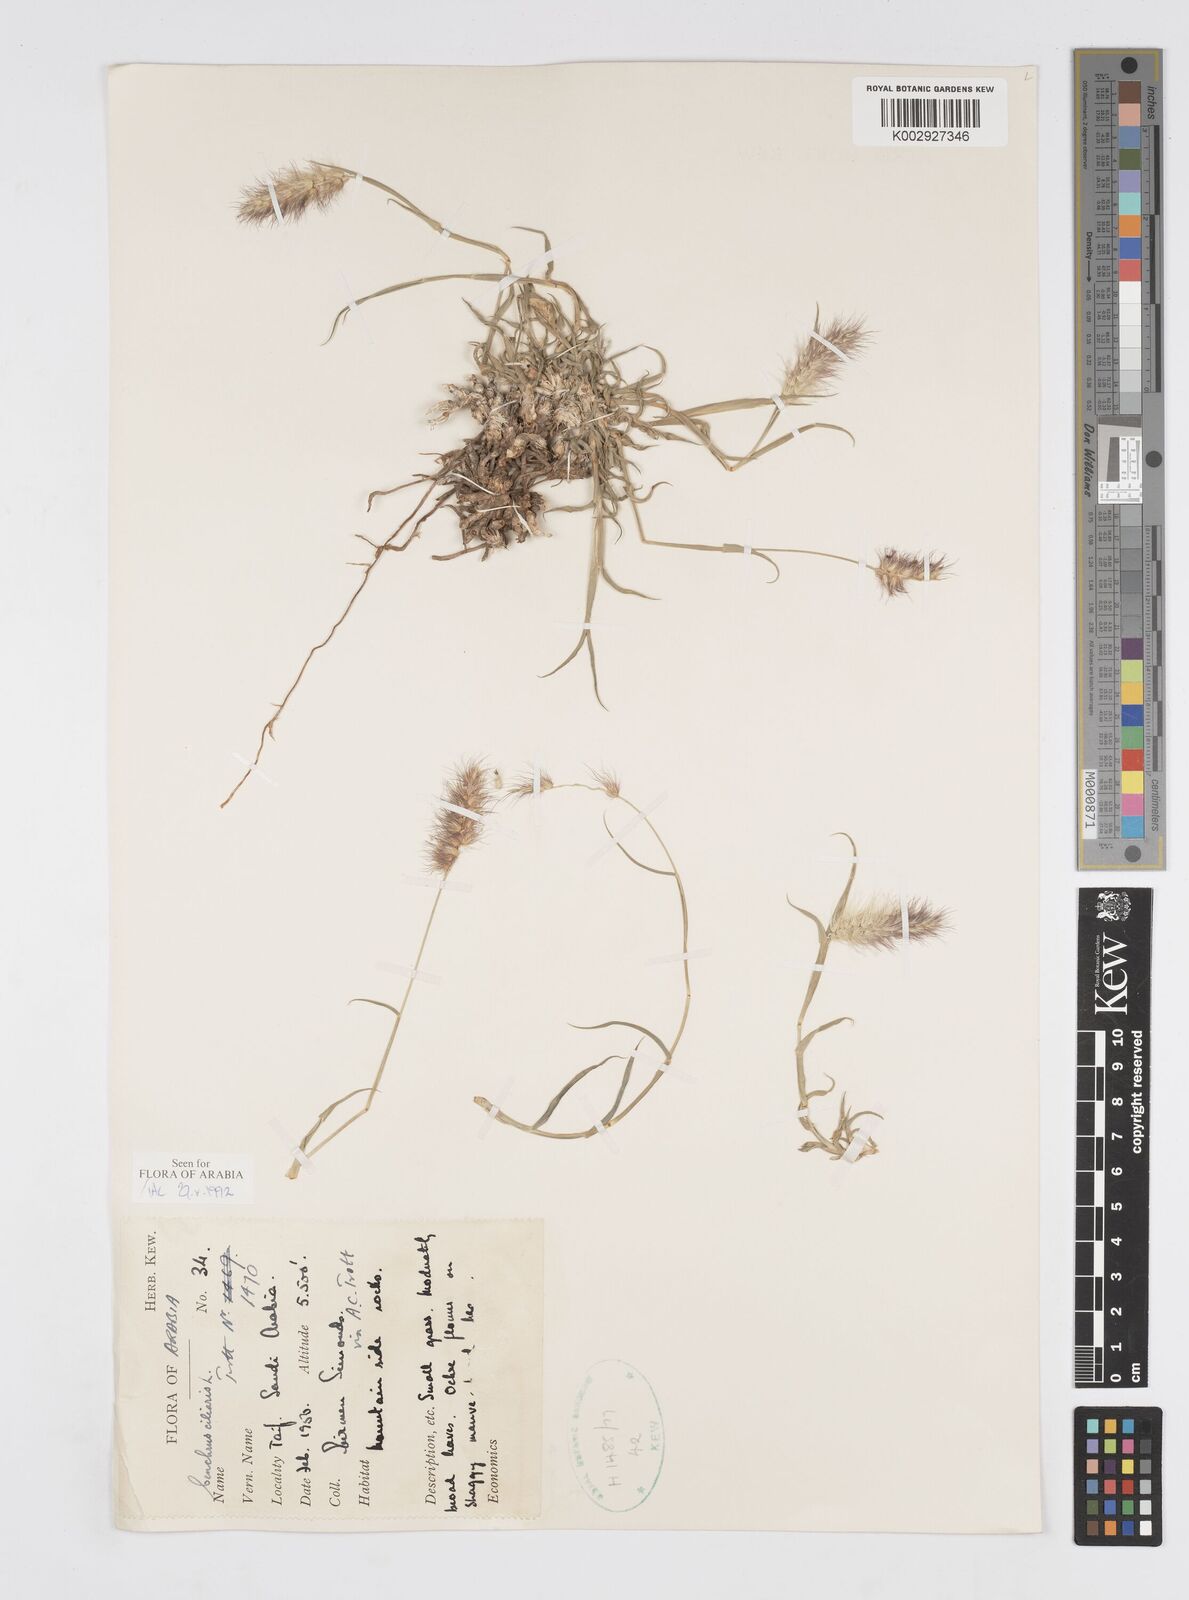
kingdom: Plantae
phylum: Tracheophyta
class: Liliopsida
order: Poales
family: Poaceae
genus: Cenchrus
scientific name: Cenchrus ciliaris
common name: Buffelgrass
